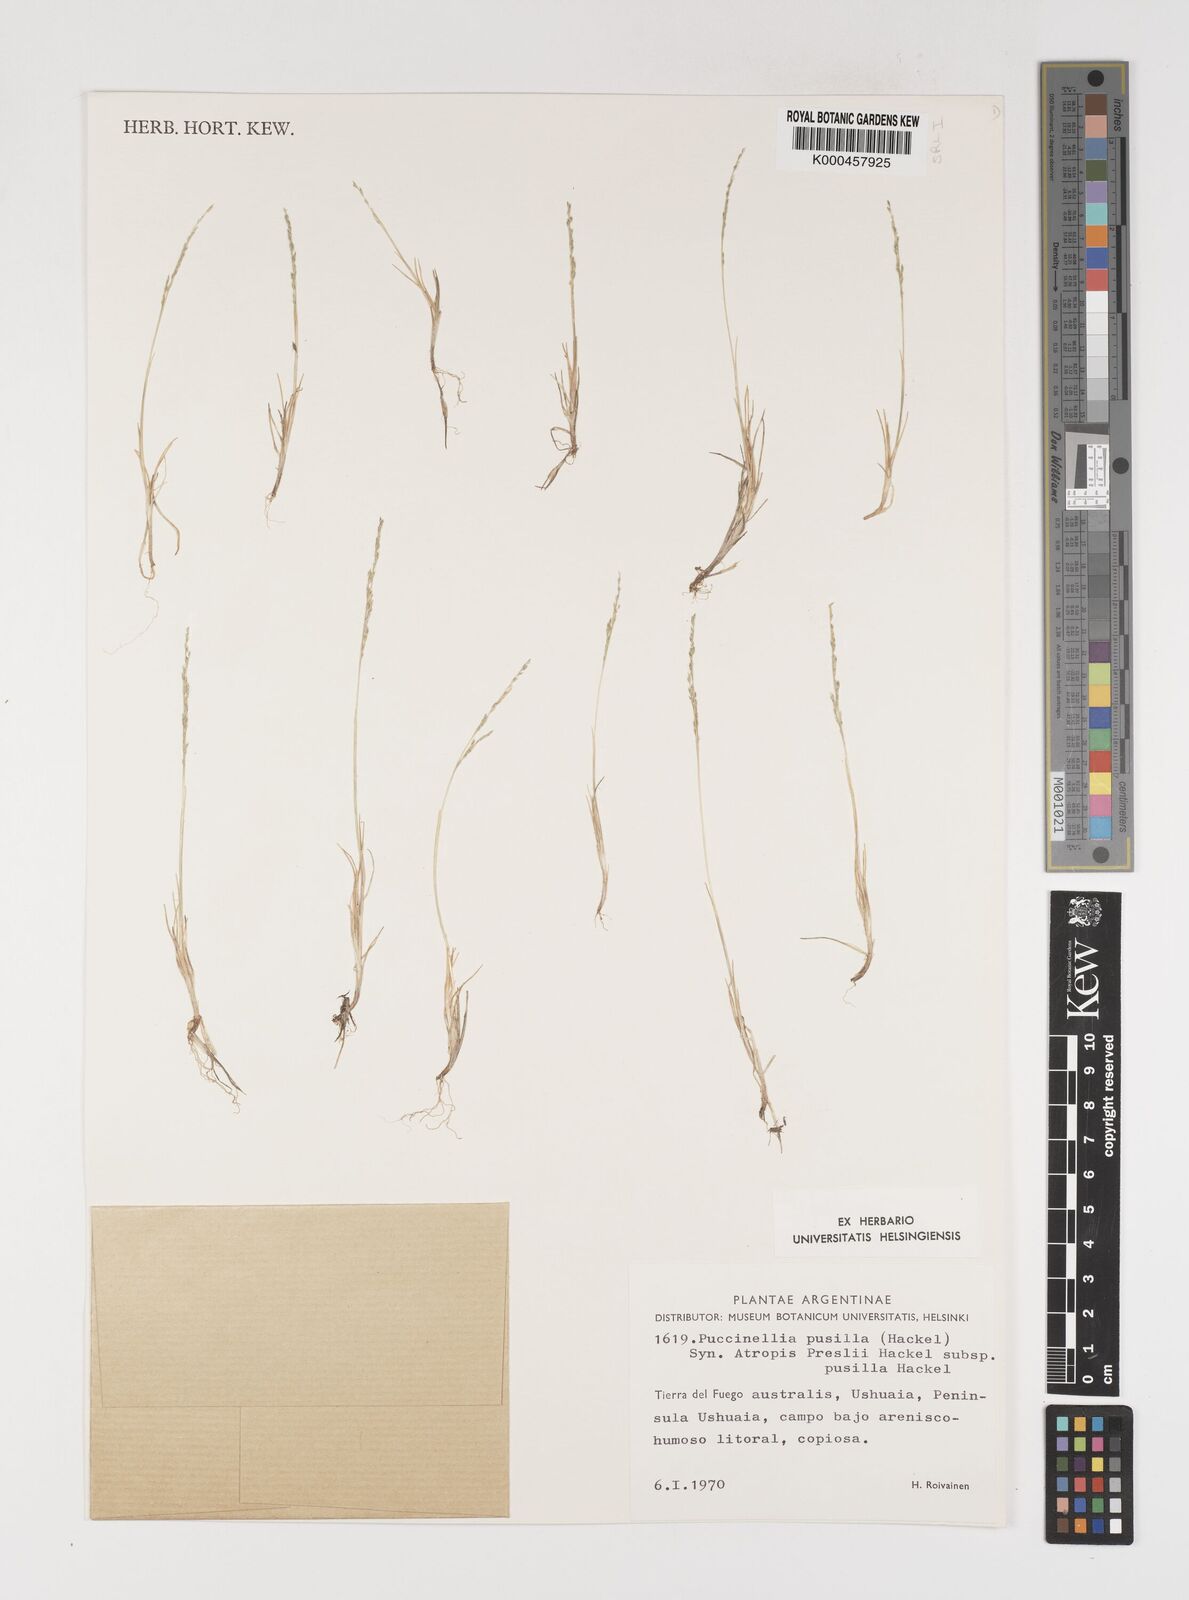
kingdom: Plantae
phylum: Tracheophyta
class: Liliopsida
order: Poales
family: Poaceae
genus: Puccinellia
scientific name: Puccinellia pusilla
